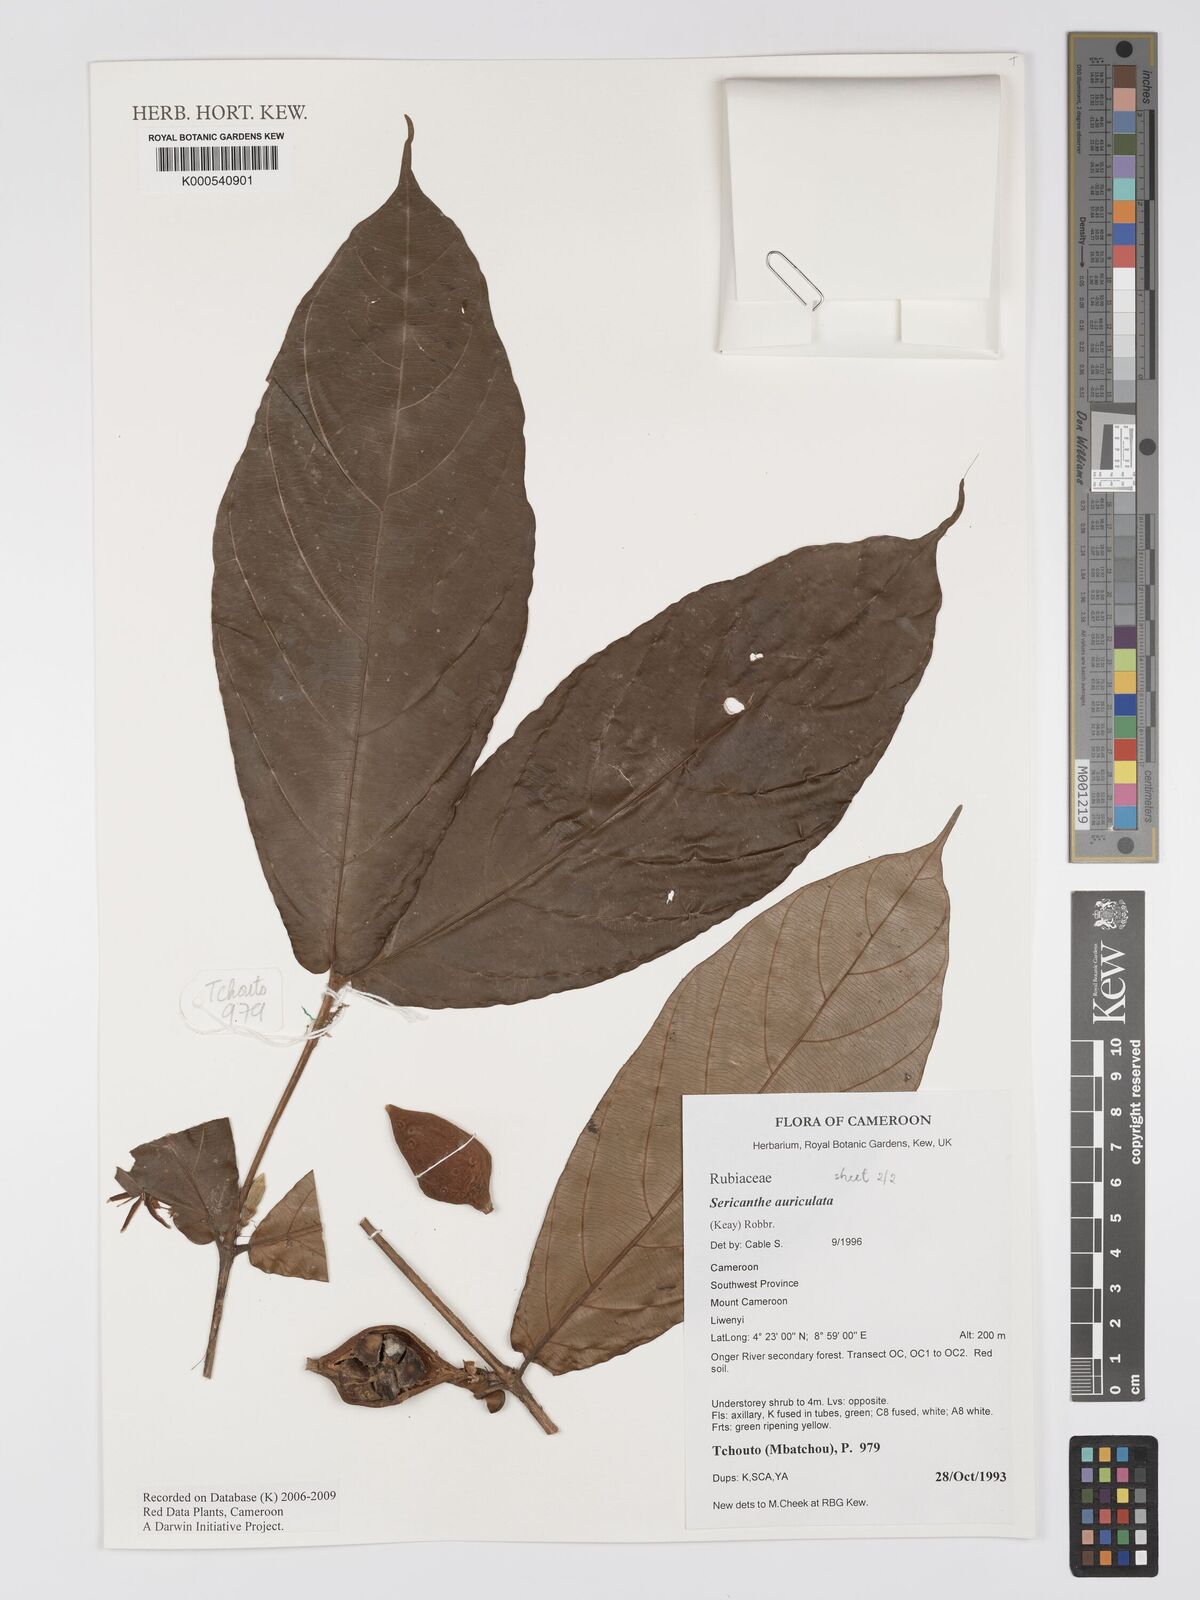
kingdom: Plantae
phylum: Tracheophyta
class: Magnoliopsida
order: Gentianales
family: Rubiaceae
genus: Sericanthe
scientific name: Sericanthe auriculata
